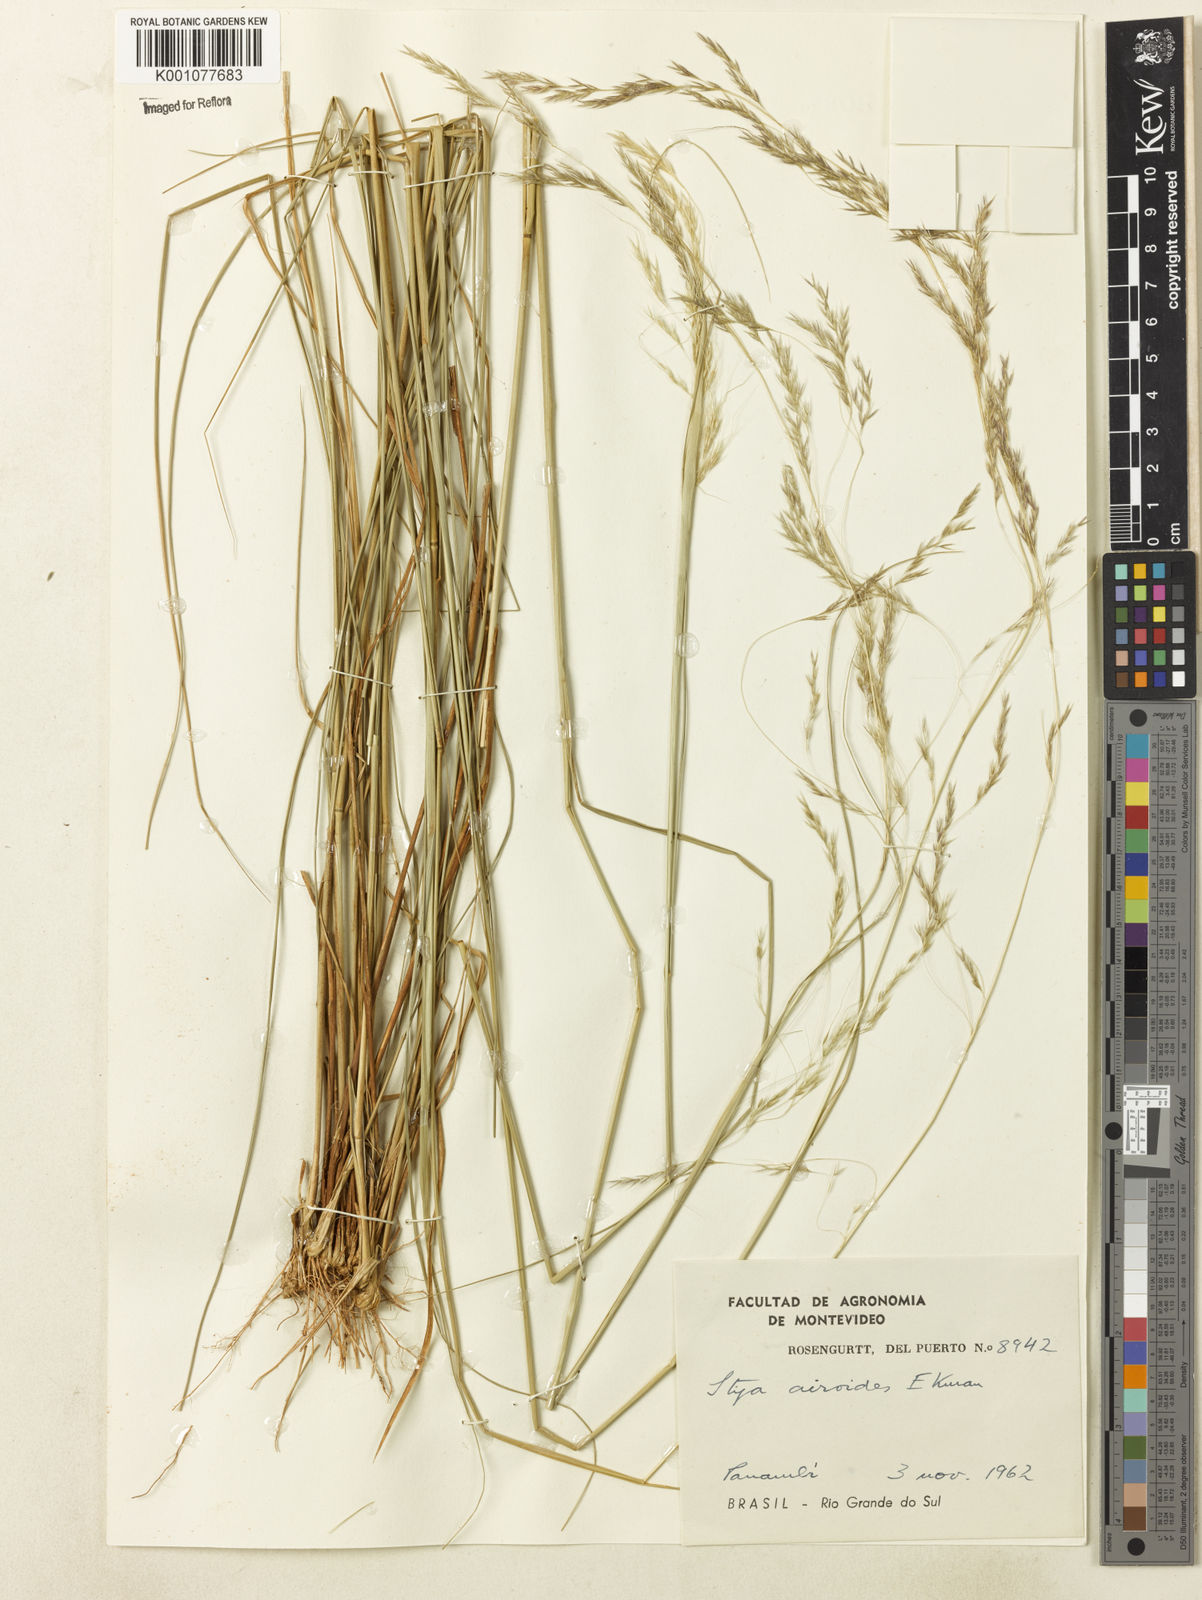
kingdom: Plantae
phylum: Tracheophyta
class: Liliopsida
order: Poales
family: Poaceae
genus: Jarava
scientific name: Jarava filifolia
